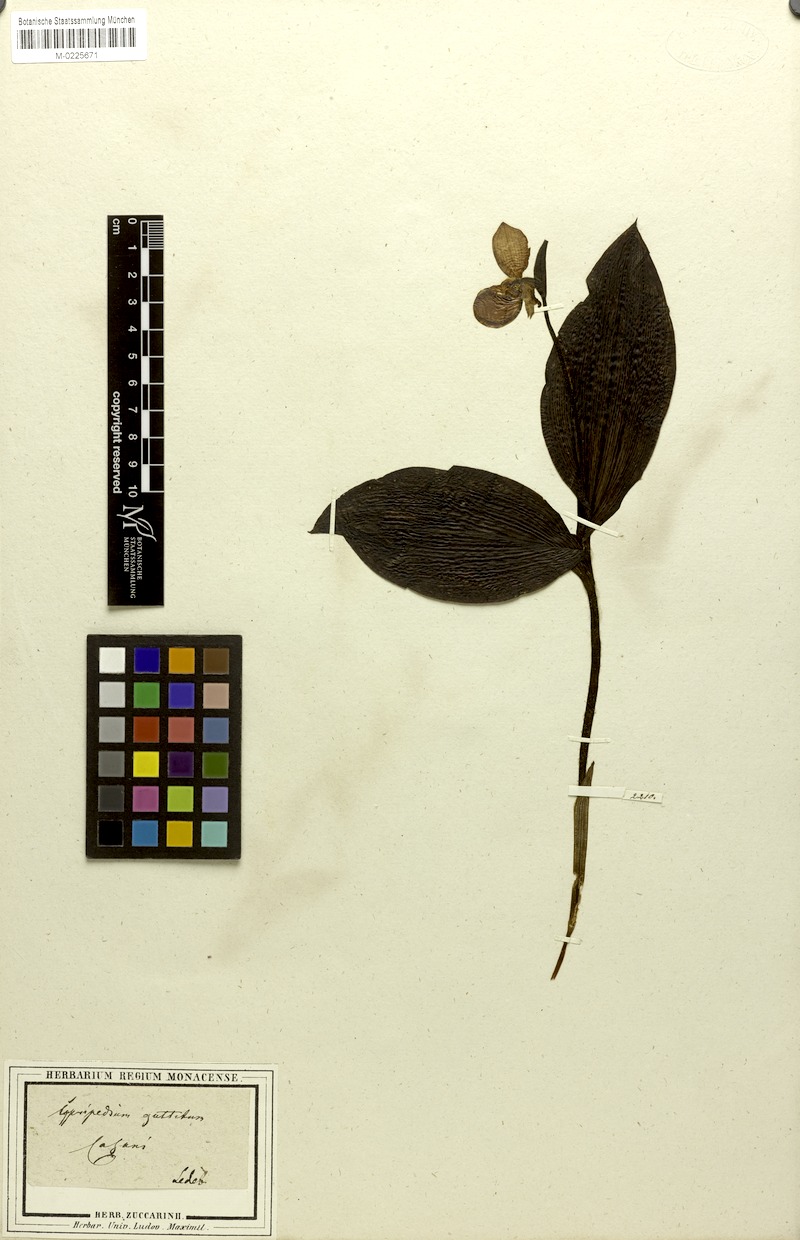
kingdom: Plantae
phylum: Tracheophyta
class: Liliopsida
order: Asparagales
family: Orchidaceae
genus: Cypripedium
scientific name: Cypripedium guttatum
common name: Pink lady slipper
